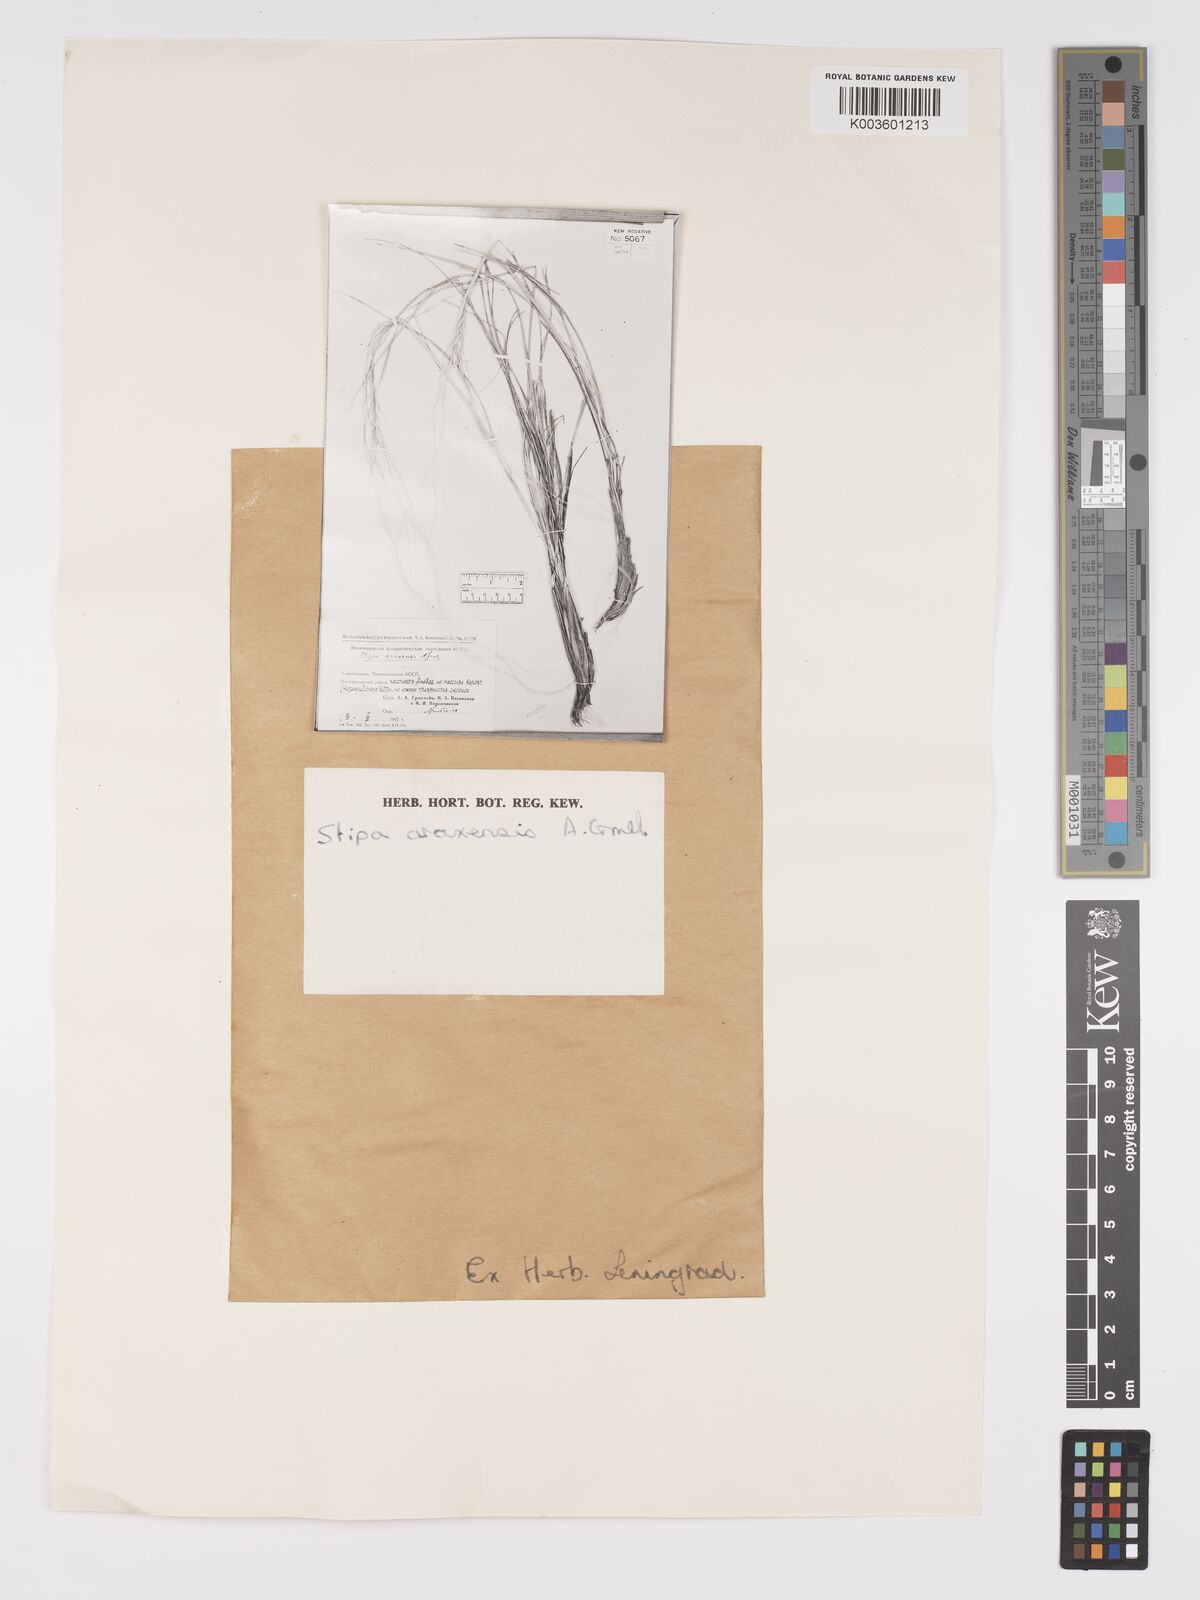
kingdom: Plantae
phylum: Tracheophyta
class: Liliopsida
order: Poales
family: Poaceae
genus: Stipa
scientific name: Stipa pulcherrima
